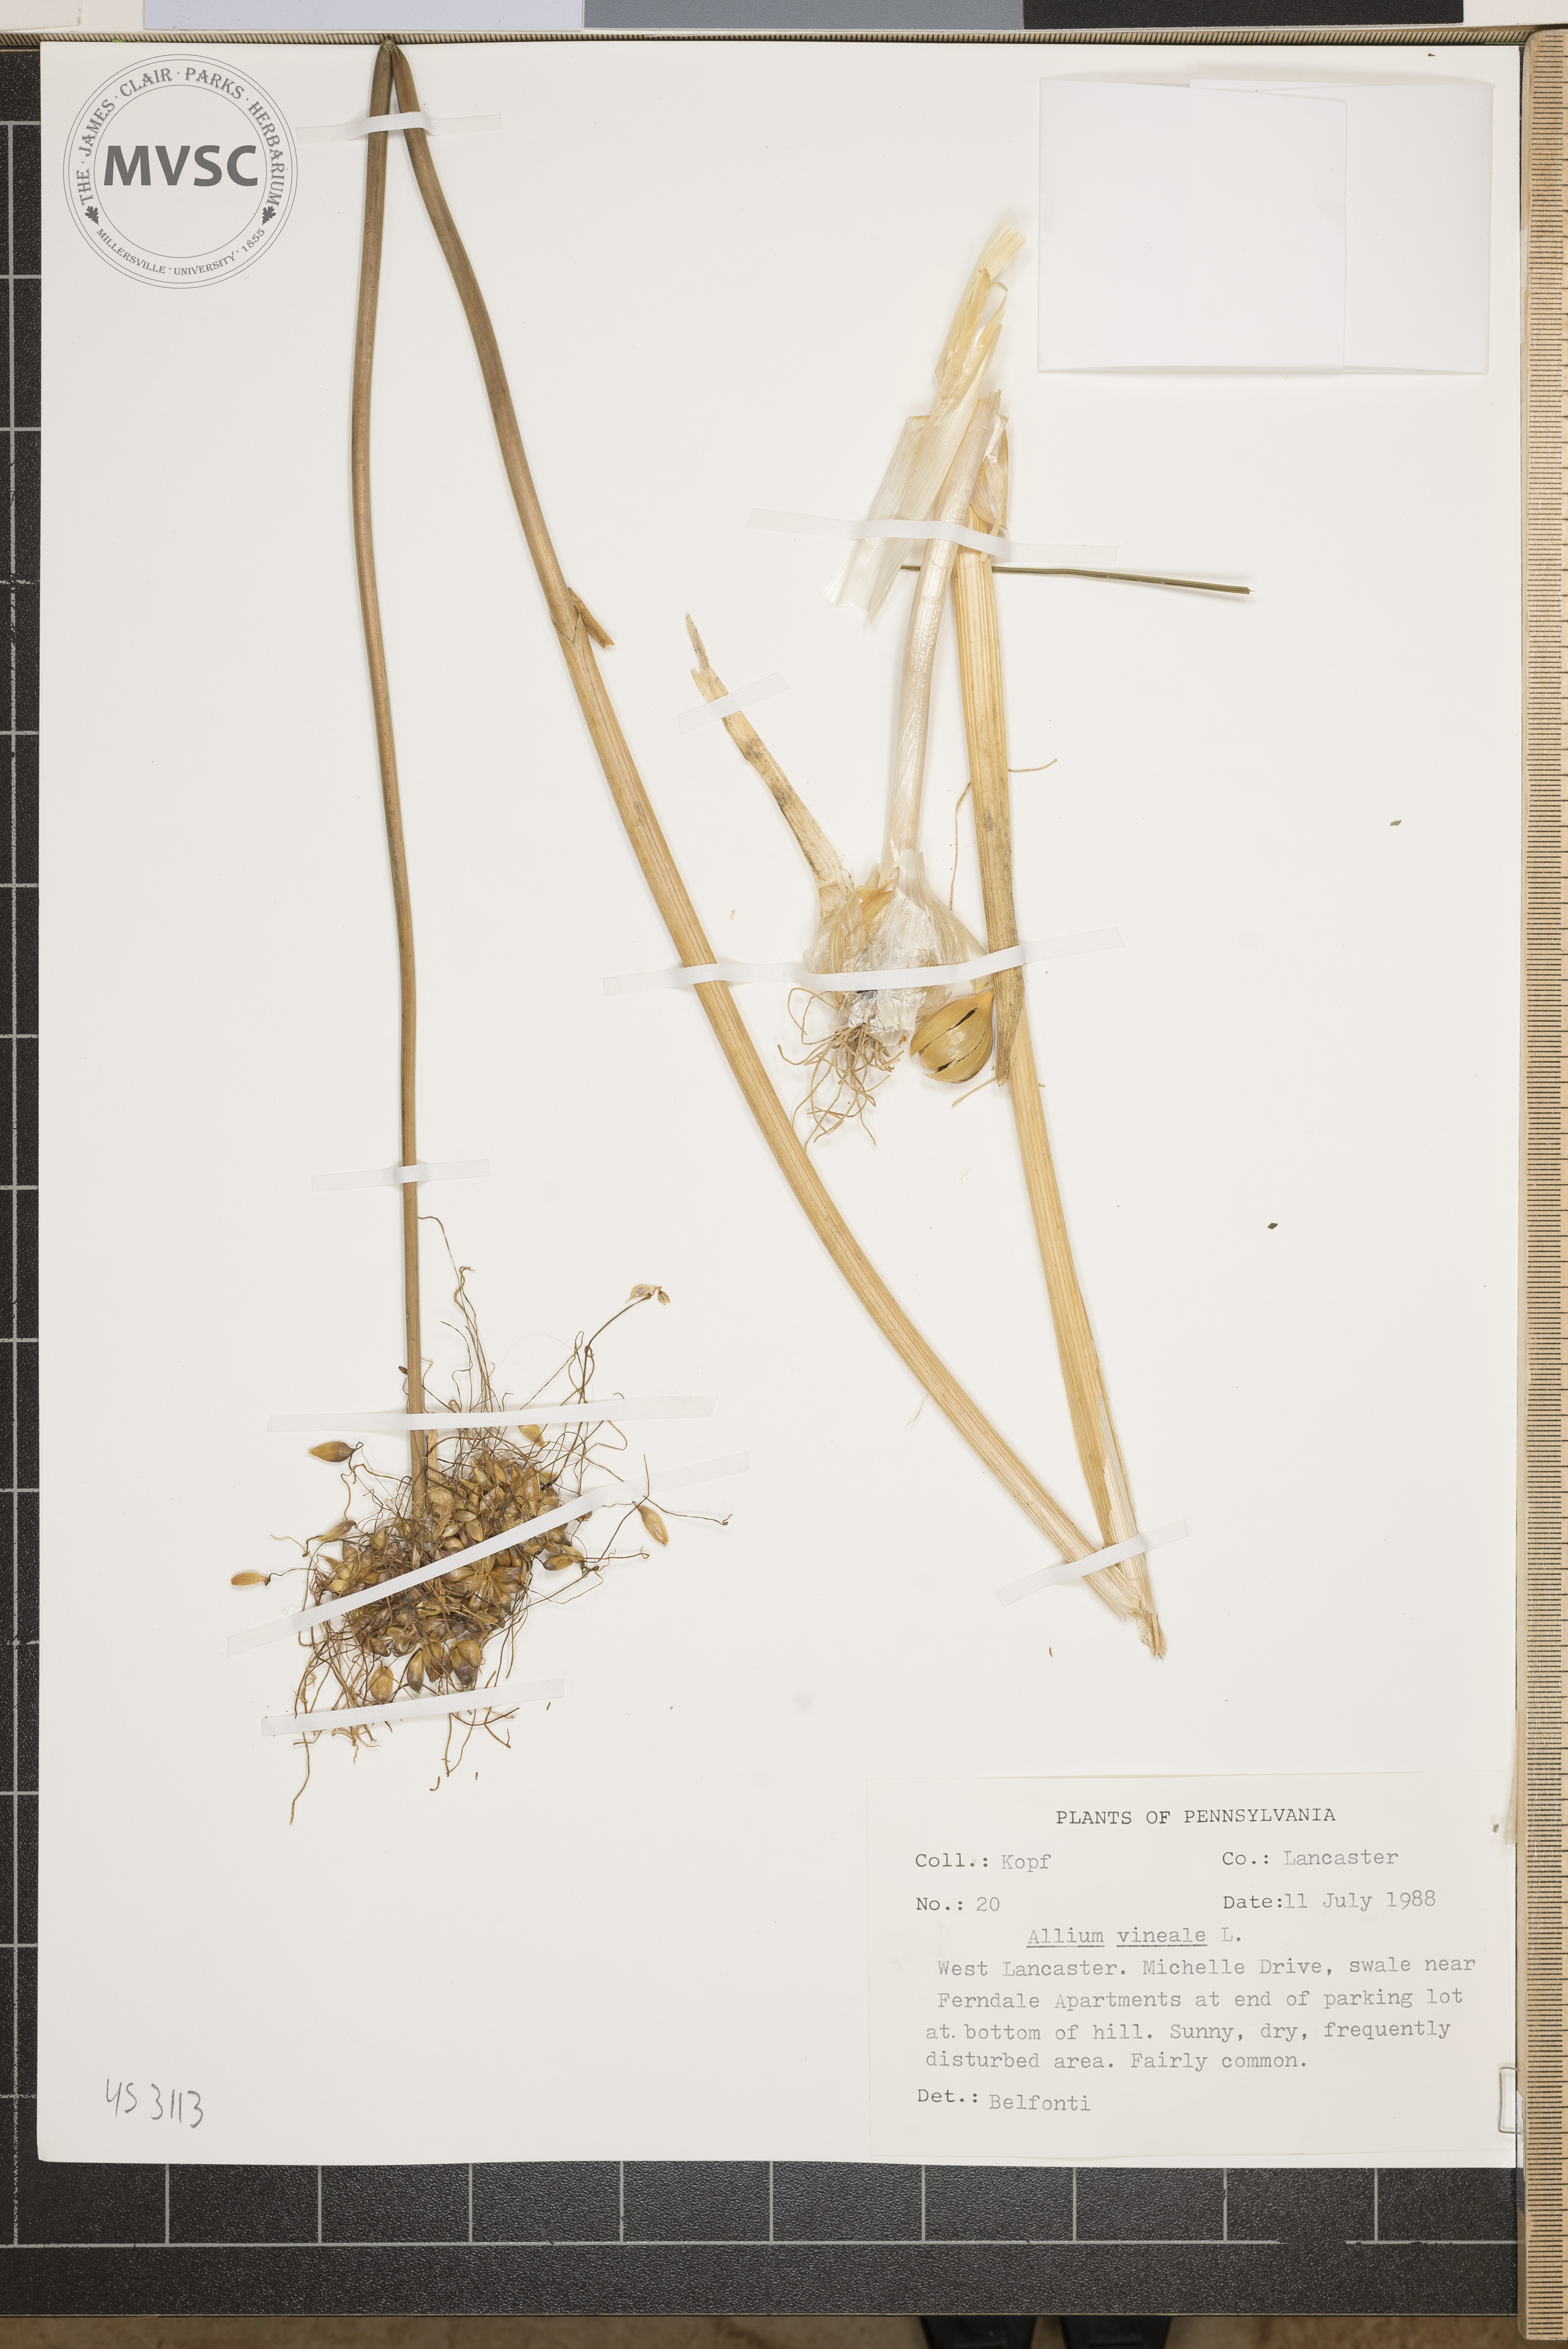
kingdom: Plantae
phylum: Tracheophyta
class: Liliopsida
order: Asparagales
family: Amaryllidaceae
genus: Allium
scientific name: Allium vineale
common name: Crow garlic
